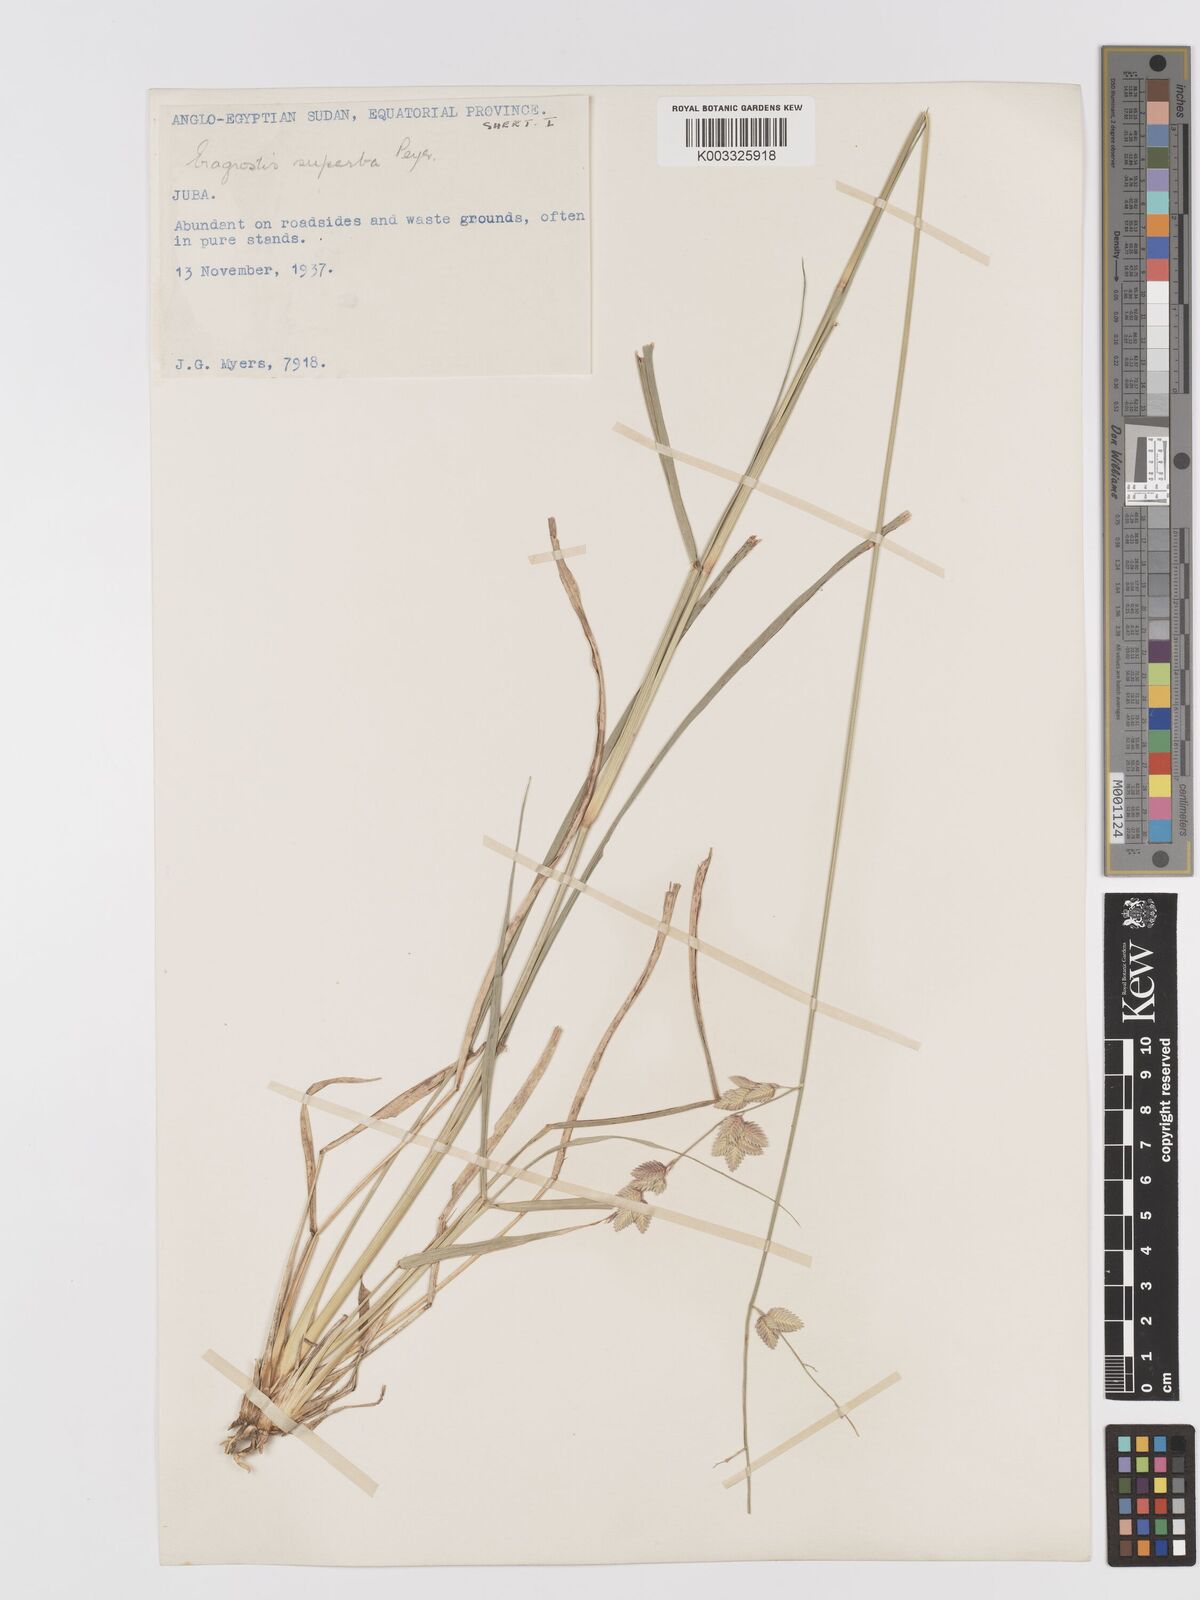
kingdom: Plantae
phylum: Tracheophyta
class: Liliopsida
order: Poales
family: Poaceae
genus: Eragrostis
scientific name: Eragrostis superba
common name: Wilman lovegrass
